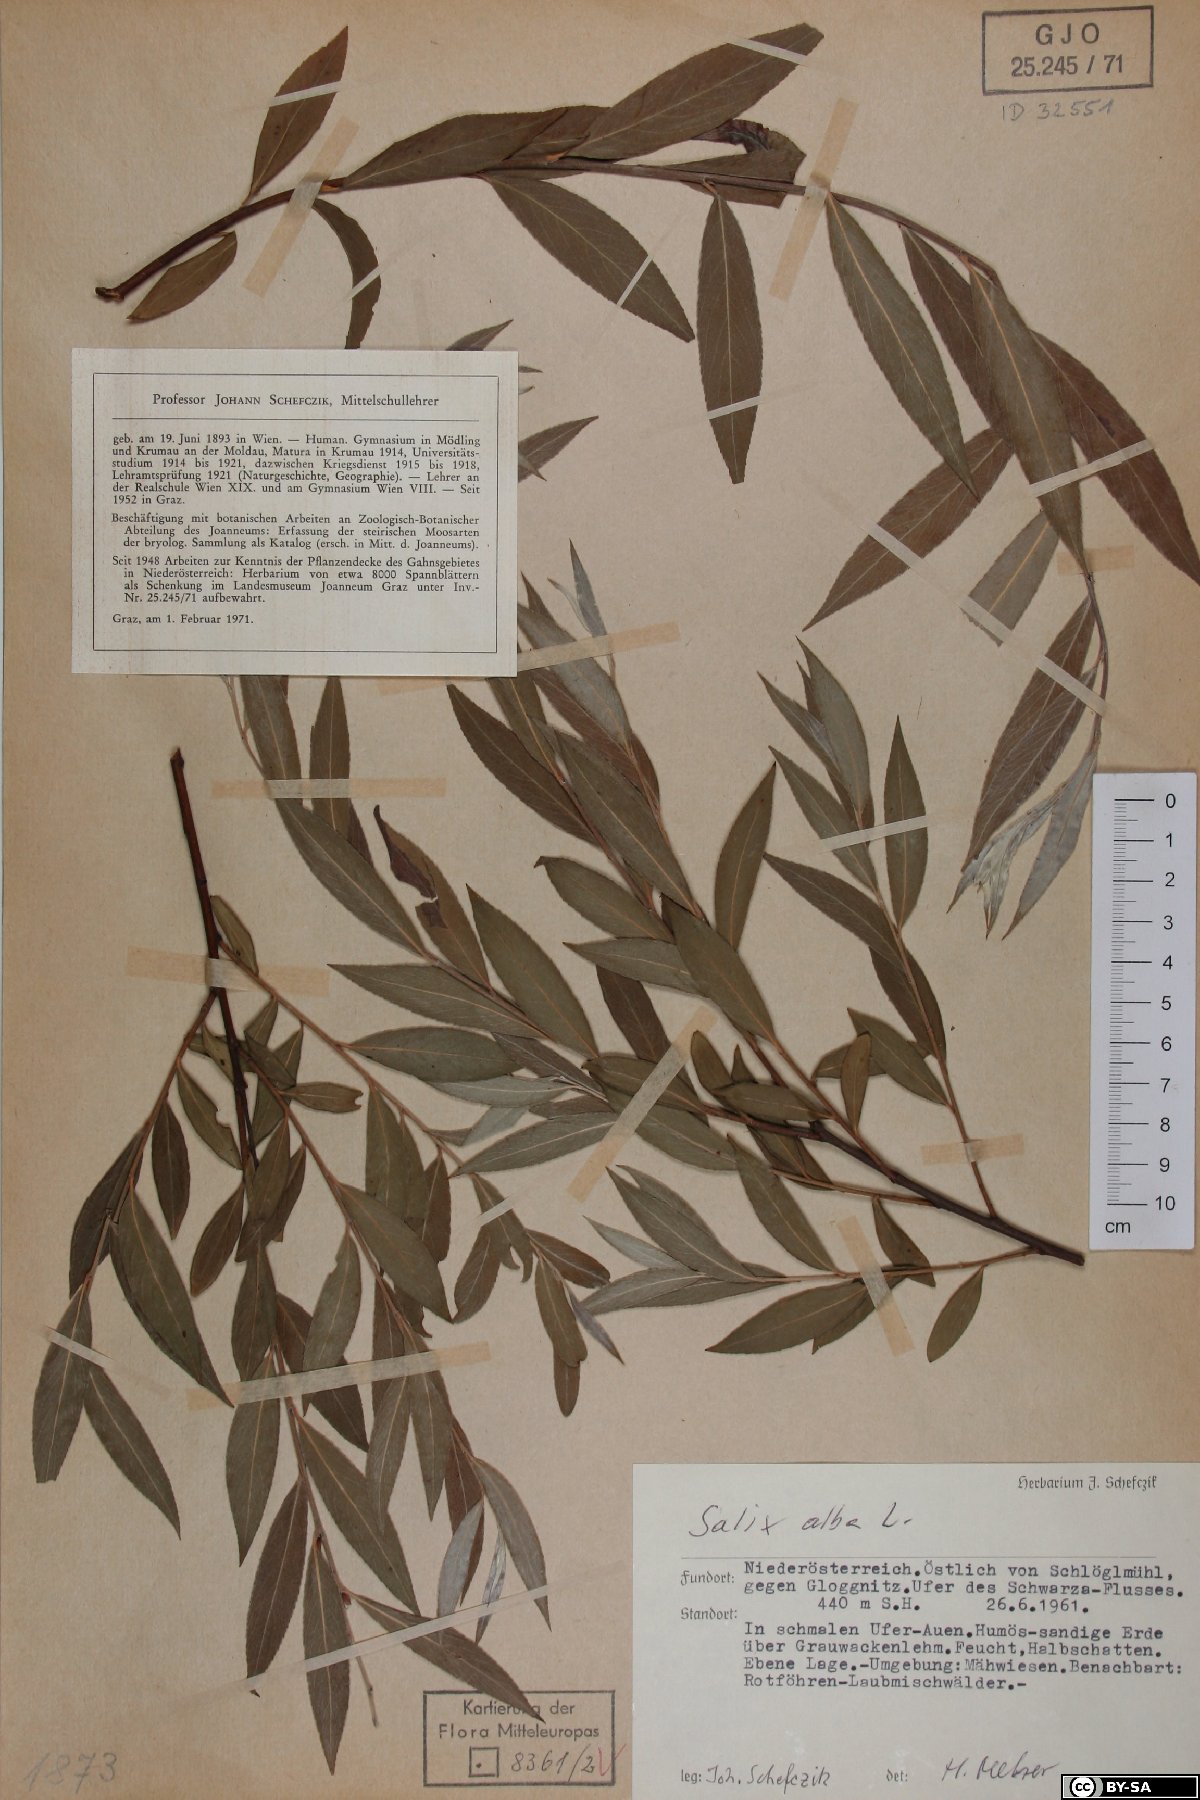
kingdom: Plantae
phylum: Tracheophyta
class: Magnoliopsida
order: Malpighiales
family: Salicaceae
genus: Salix
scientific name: Salix alba
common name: White willow
